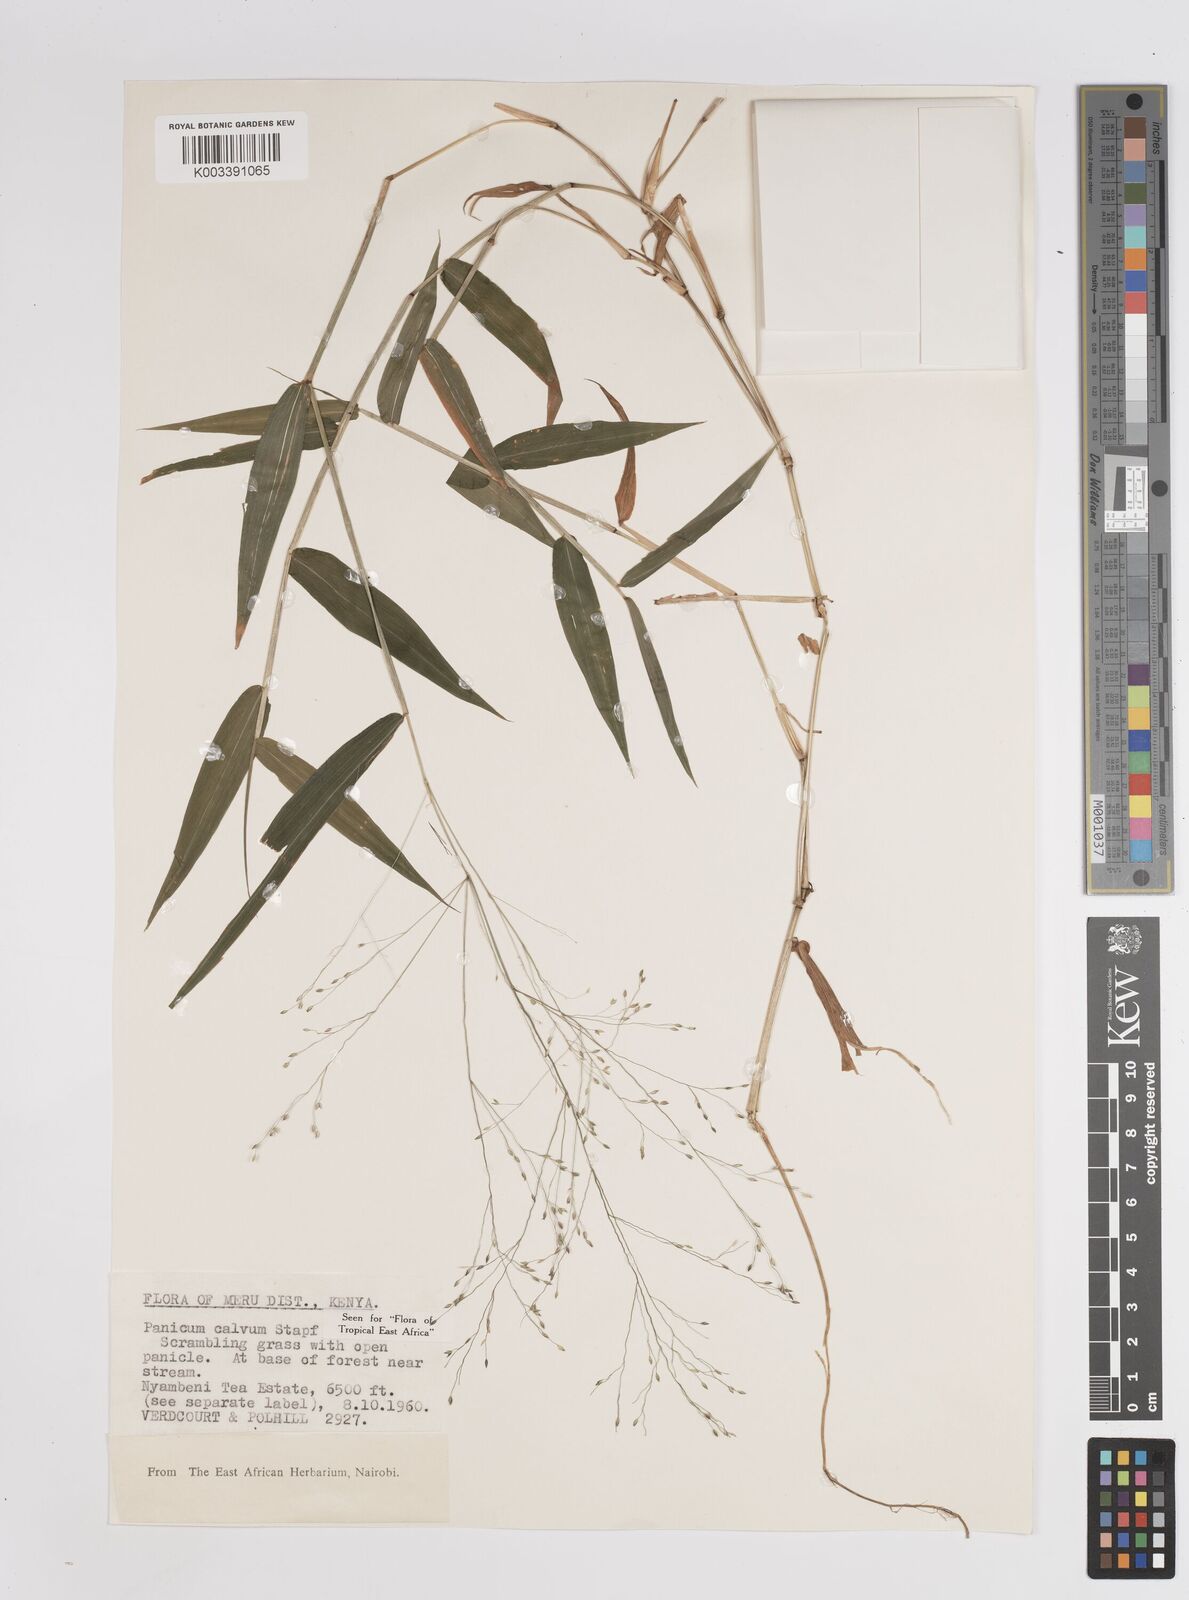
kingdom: Plantae
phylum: Tracheophyta
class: Liliopsida
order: Poales
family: Poaceae
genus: Panicum
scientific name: Panicum calvum
